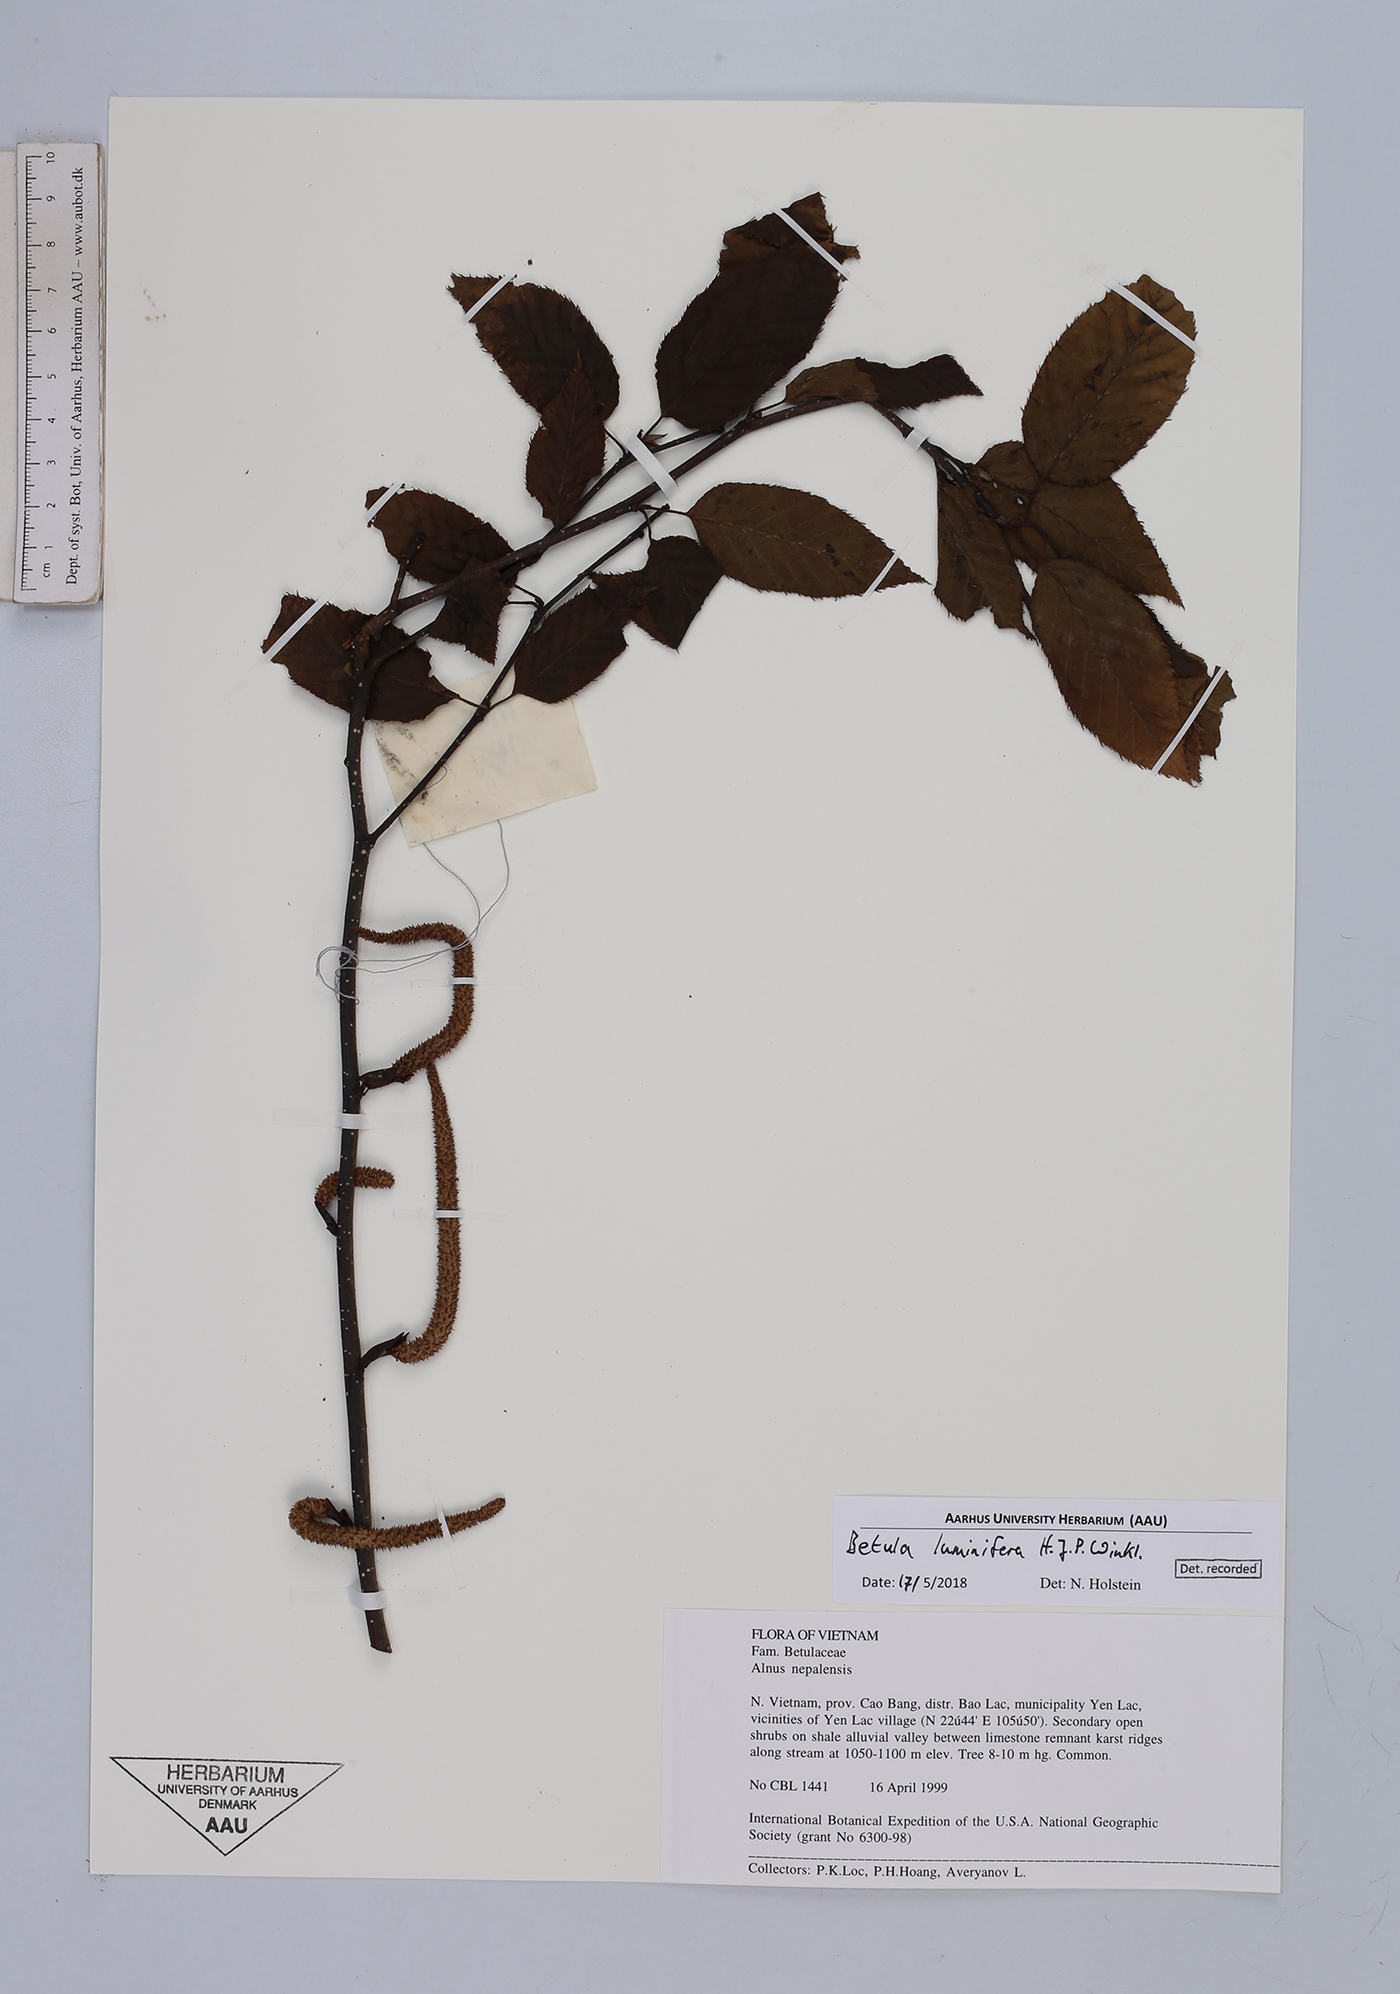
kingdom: Plantae
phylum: Tracheophyta
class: Magnoliopsida
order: Fagales
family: Betulaceae
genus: Betula
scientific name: Betula luminifera
